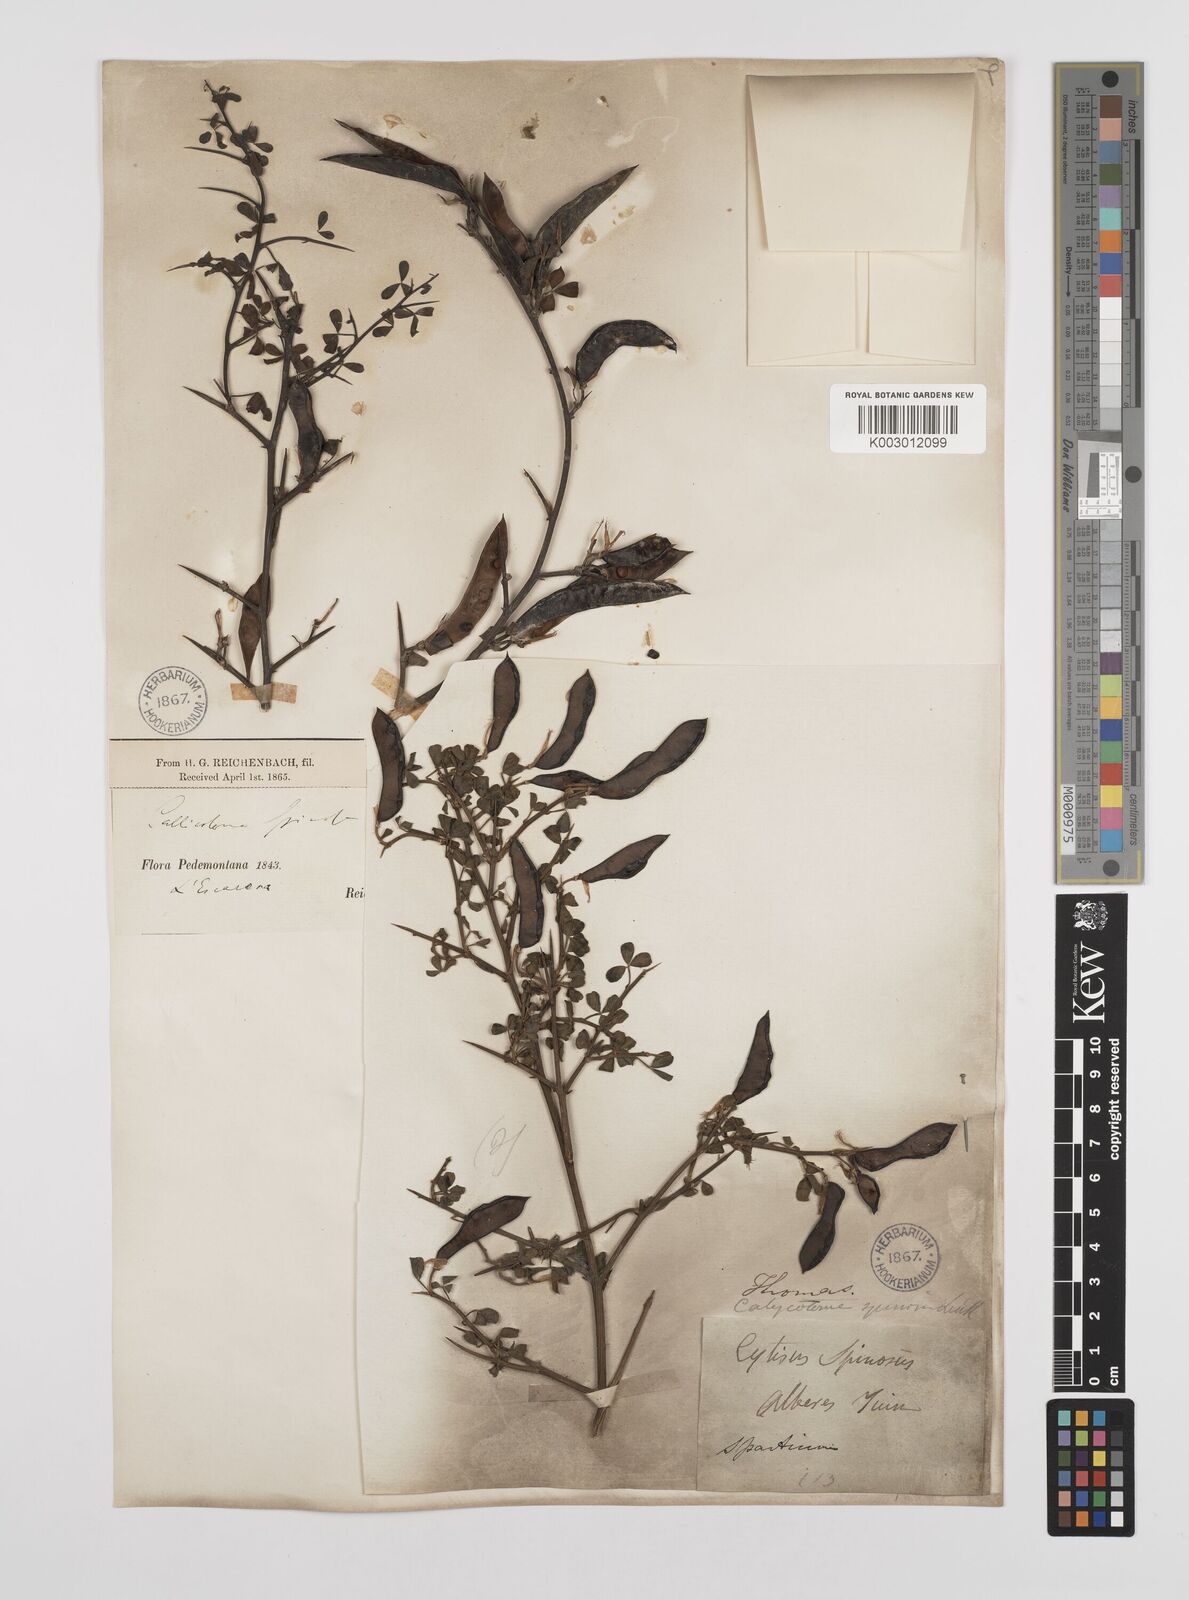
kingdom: Plantae
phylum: Tracheophyta
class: Magnoliopsida
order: Fabales
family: Fabaceae
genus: Calicotome
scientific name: Calicotome spinosa
